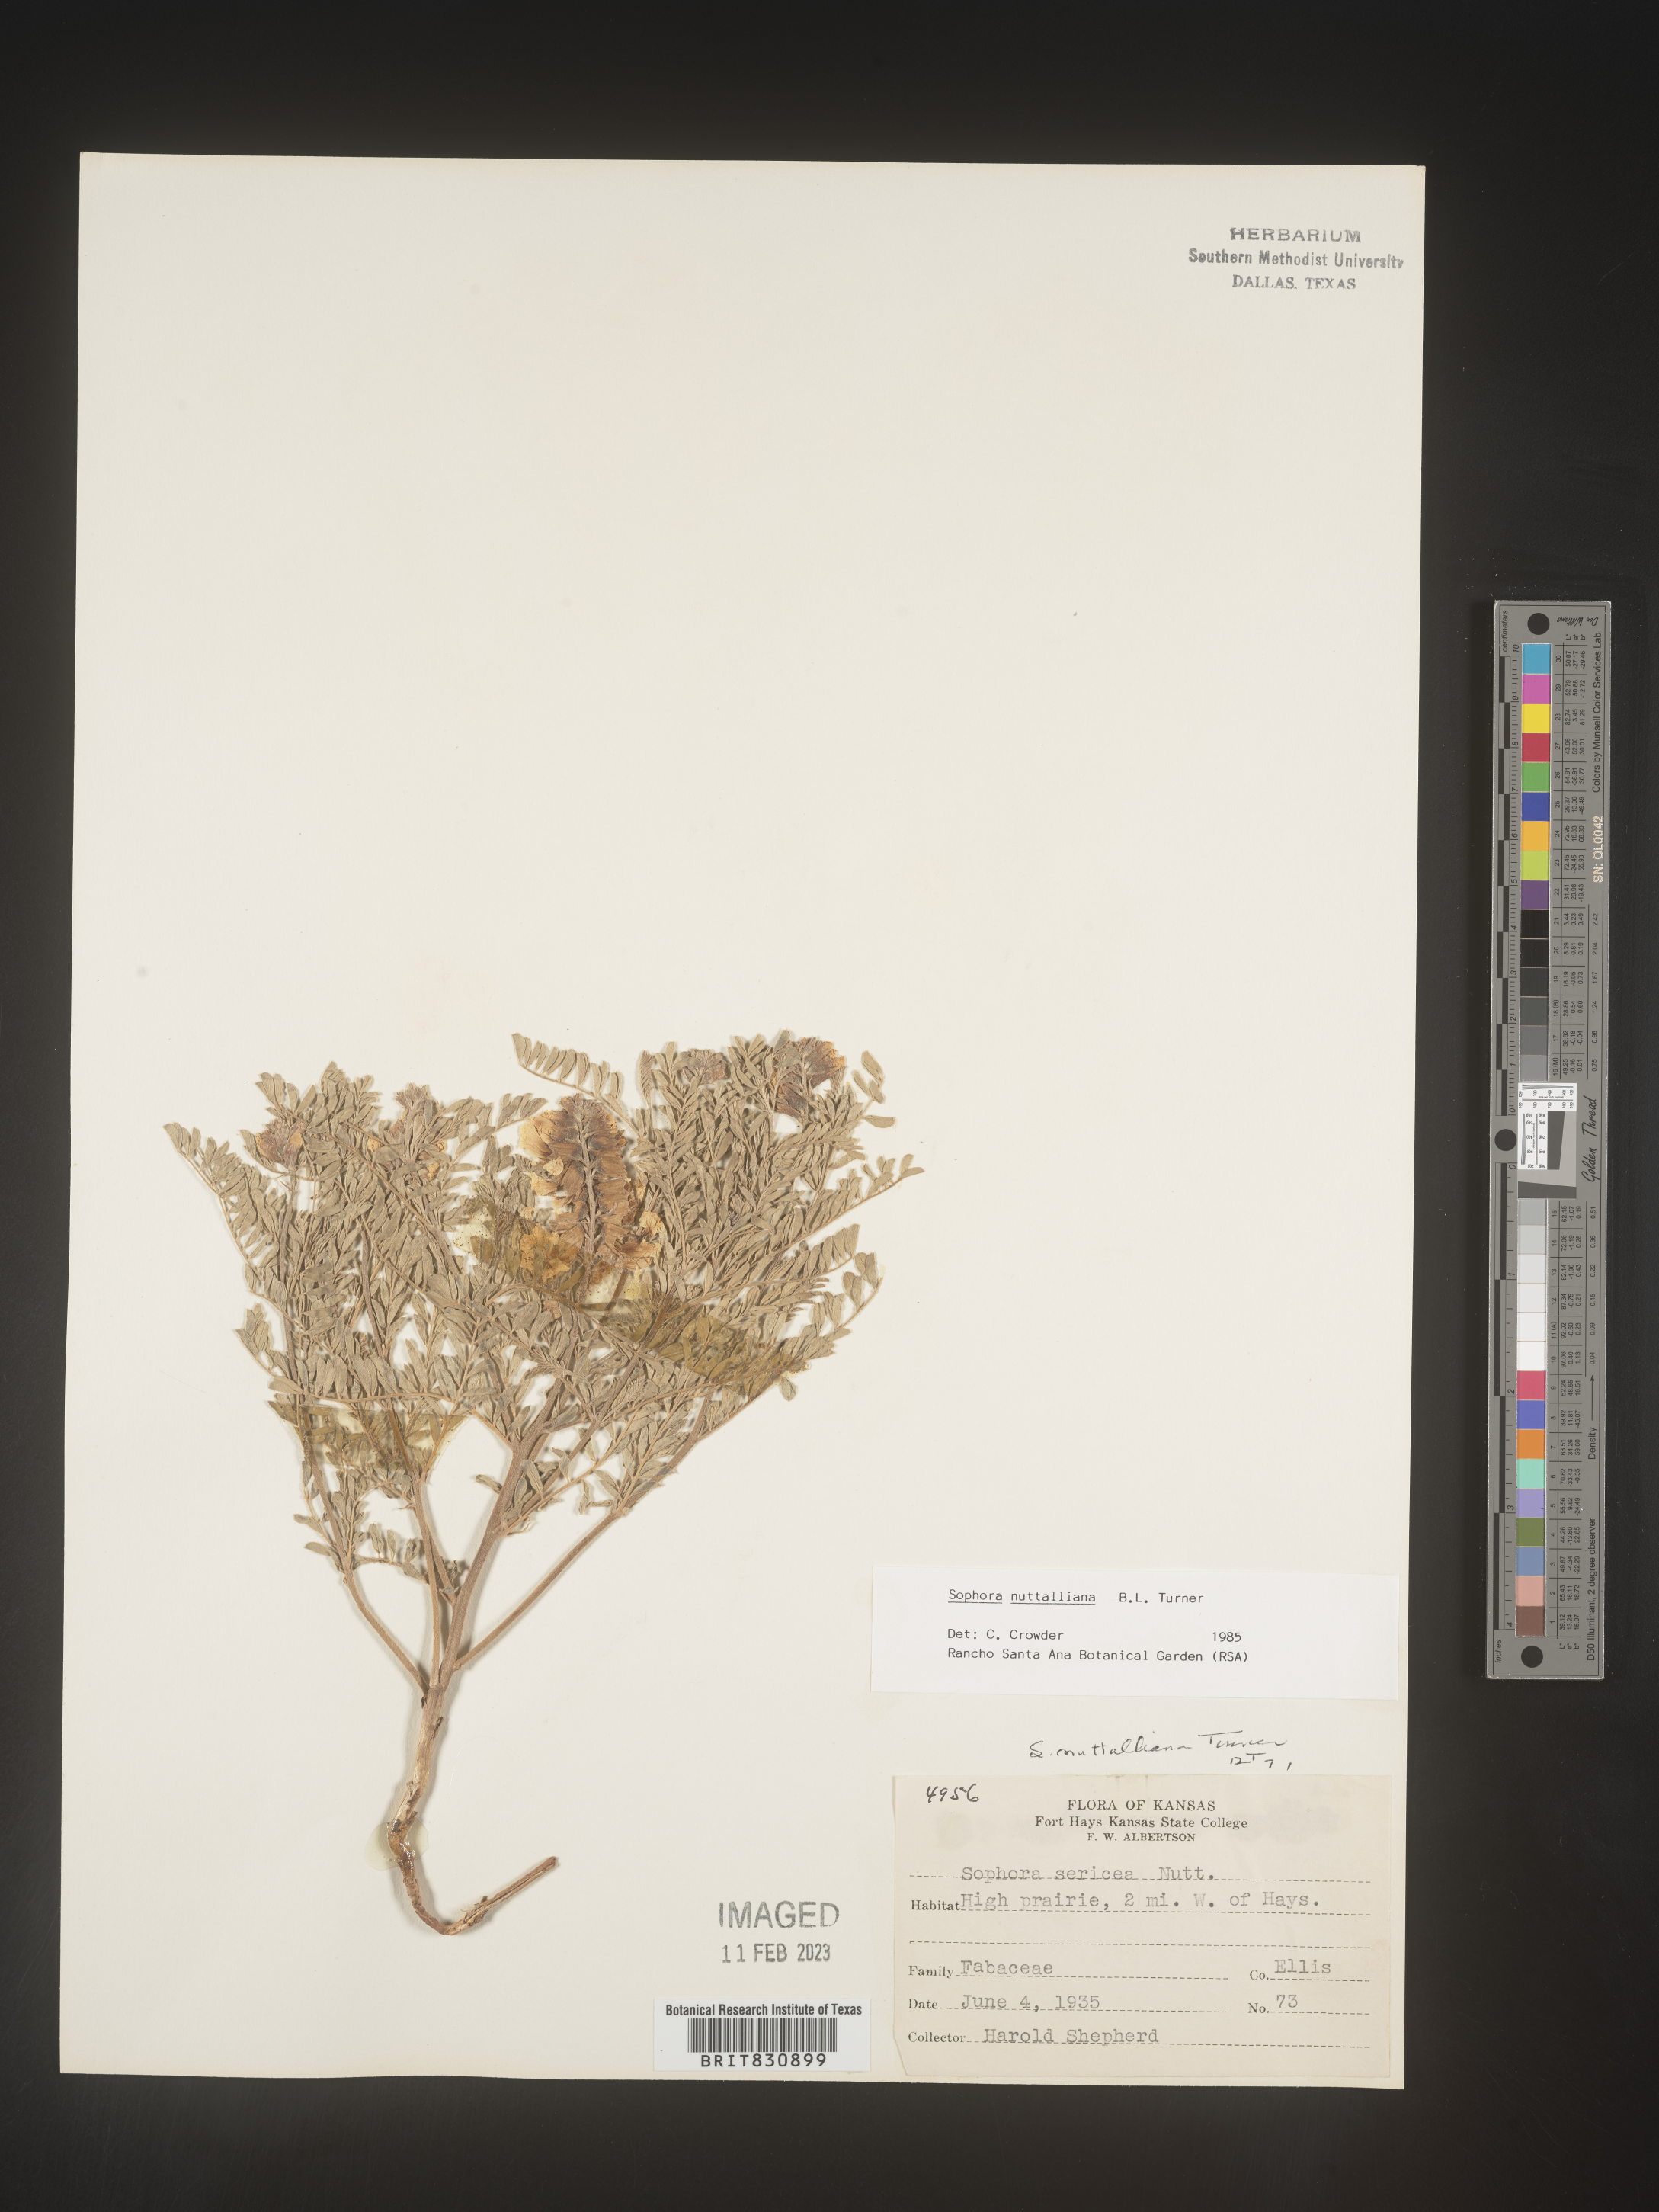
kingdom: Plantae
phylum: Tracheophyta
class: Magnoliopsida
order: Fabales
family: Fabaceae
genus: Sophora
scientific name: Sophora nuttalliana
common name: Silky sophora
